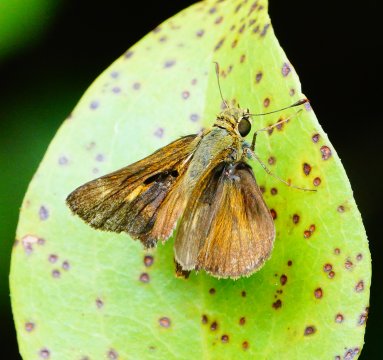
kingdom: Animalia
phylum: Arthropoda
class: Insecta
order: Lepidoptera
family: Hesperiidae
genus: Atalopedes
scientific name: Atalopedes campestris
